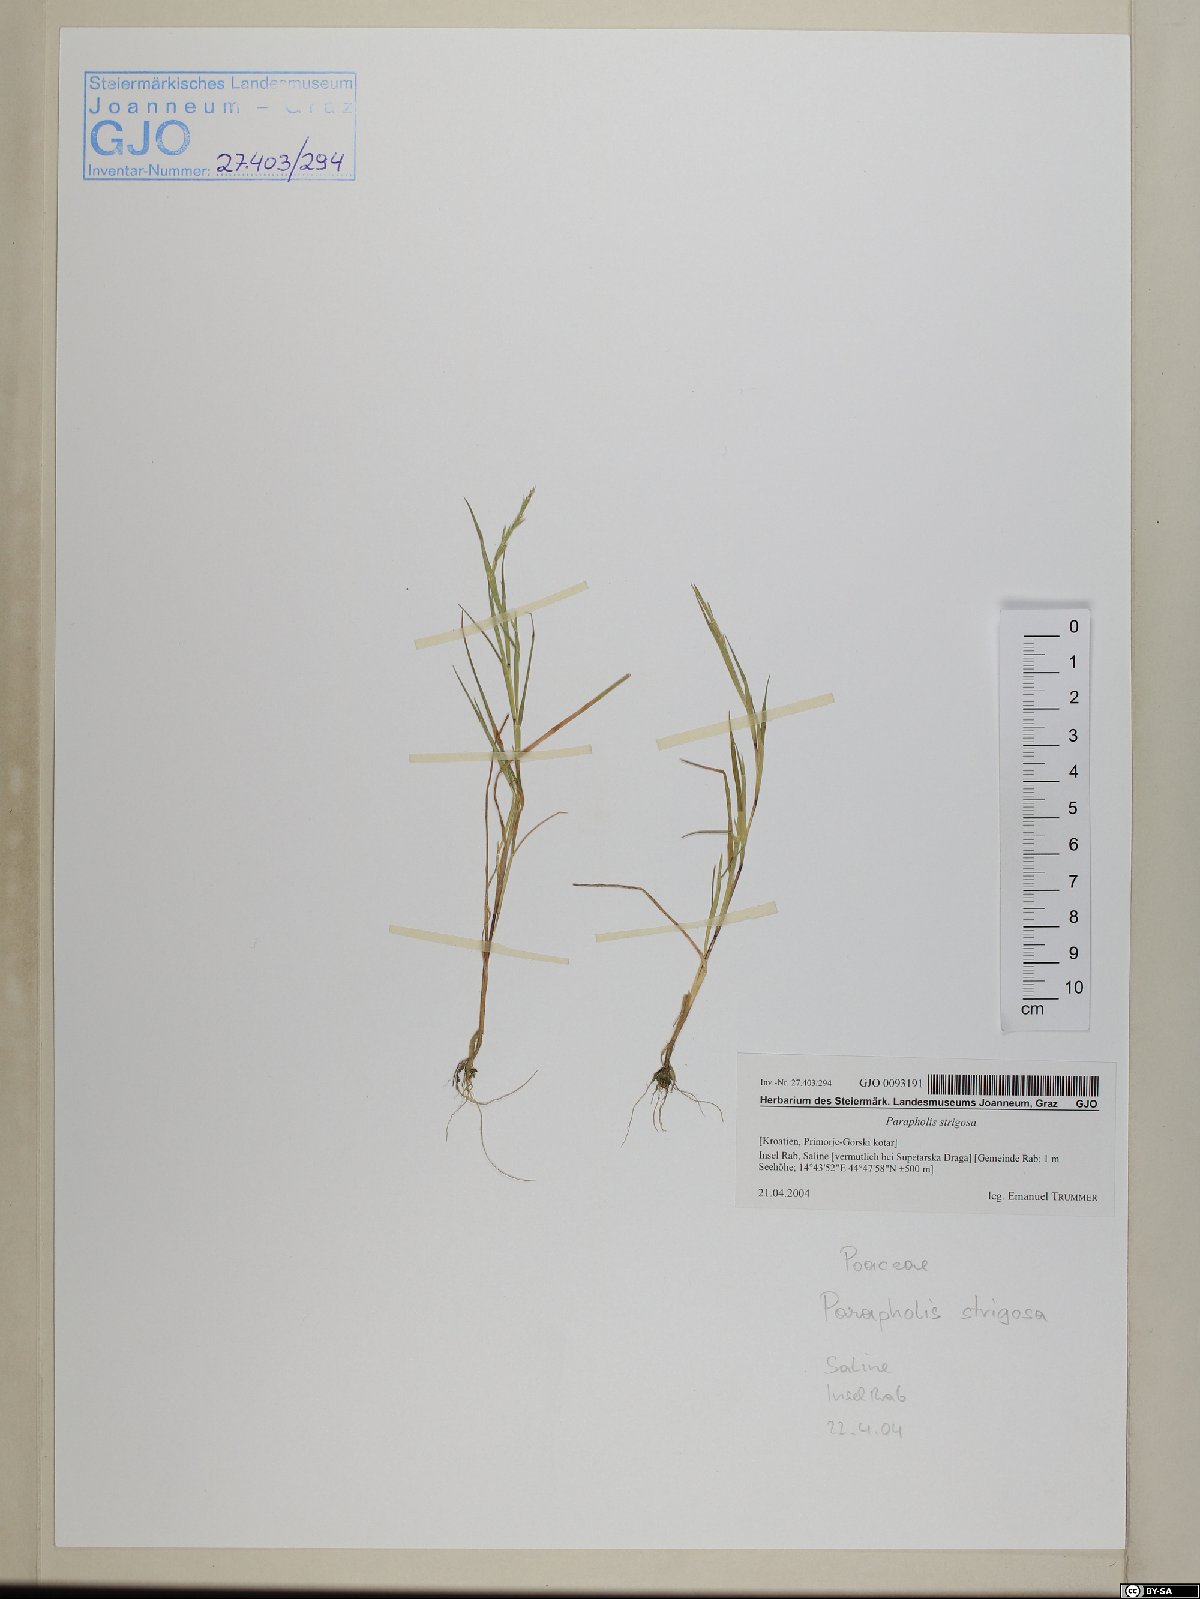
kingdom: Plantae
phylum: Tracheophyta
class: Liliopsida
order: Poales
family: Poaceae
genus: Parapholis
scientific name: Parapholis strigosa
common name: Hard-grass
